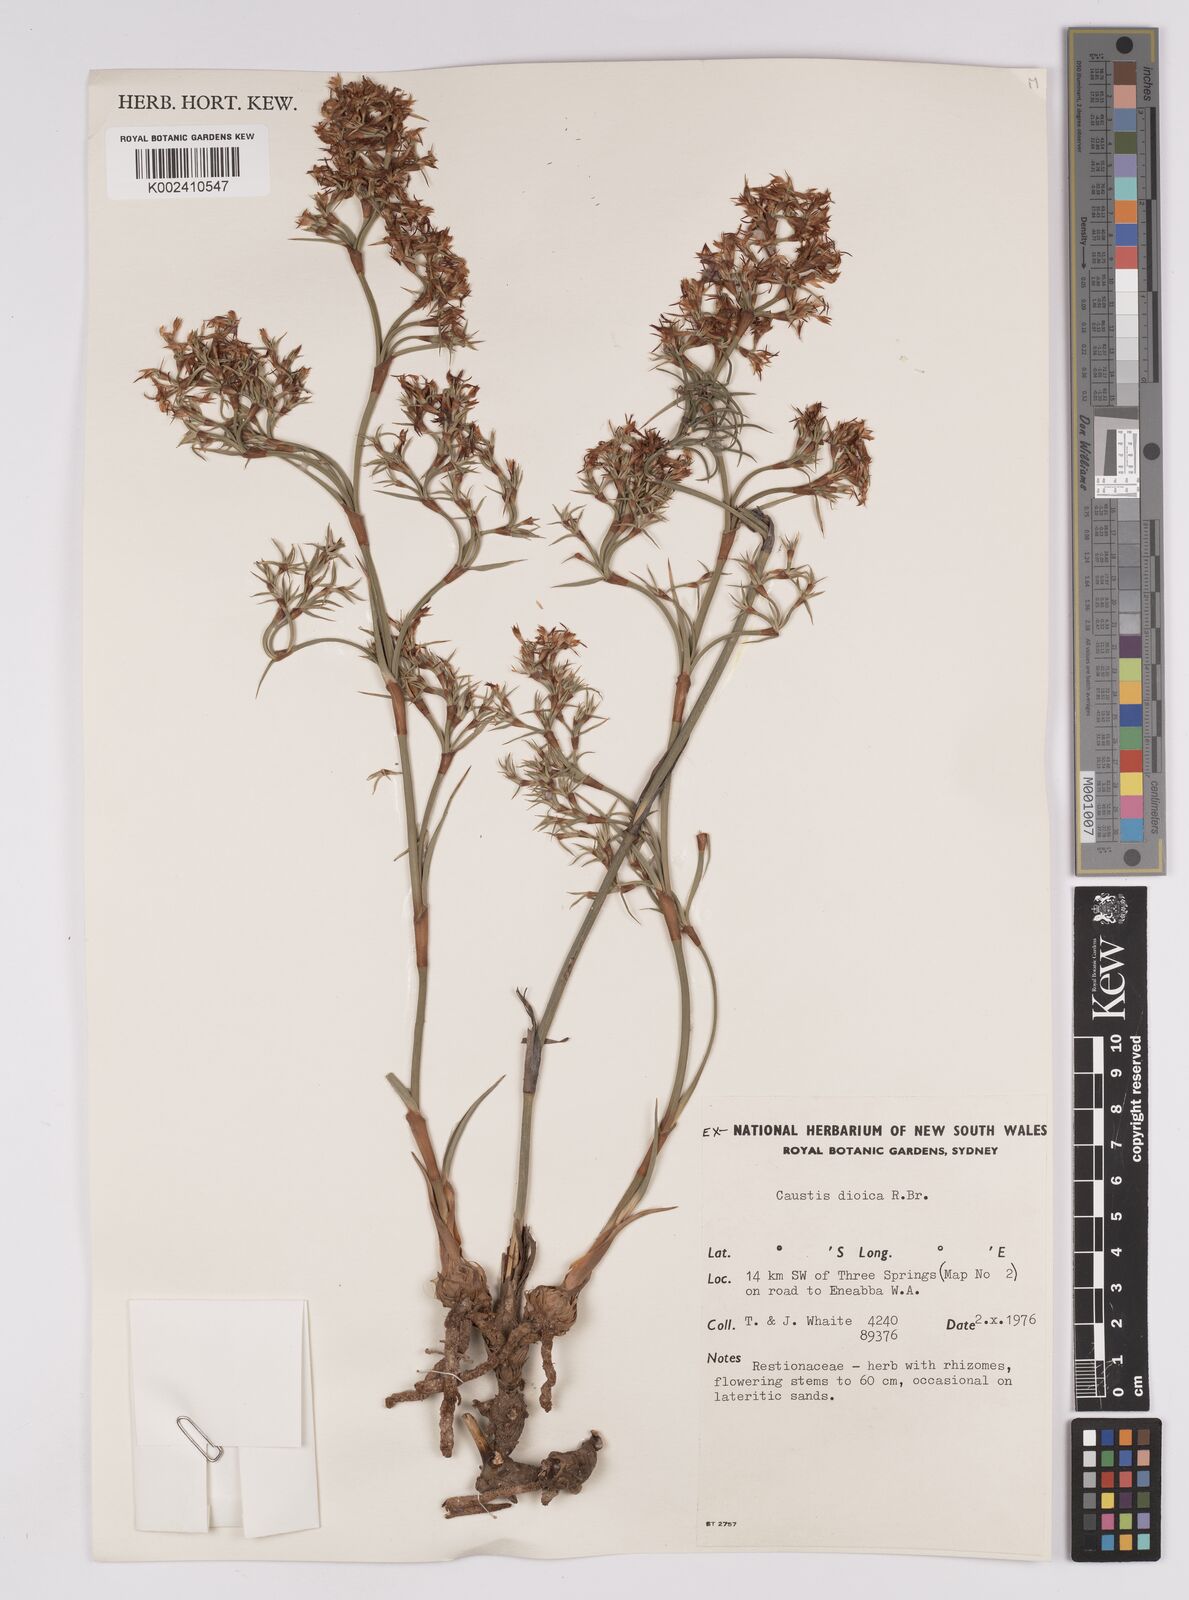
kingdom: Plantae
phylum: Tracheophyta
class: Liliopsida
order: Poales
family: Cyperaceae
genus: Caustis
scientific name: Caustis dioica
